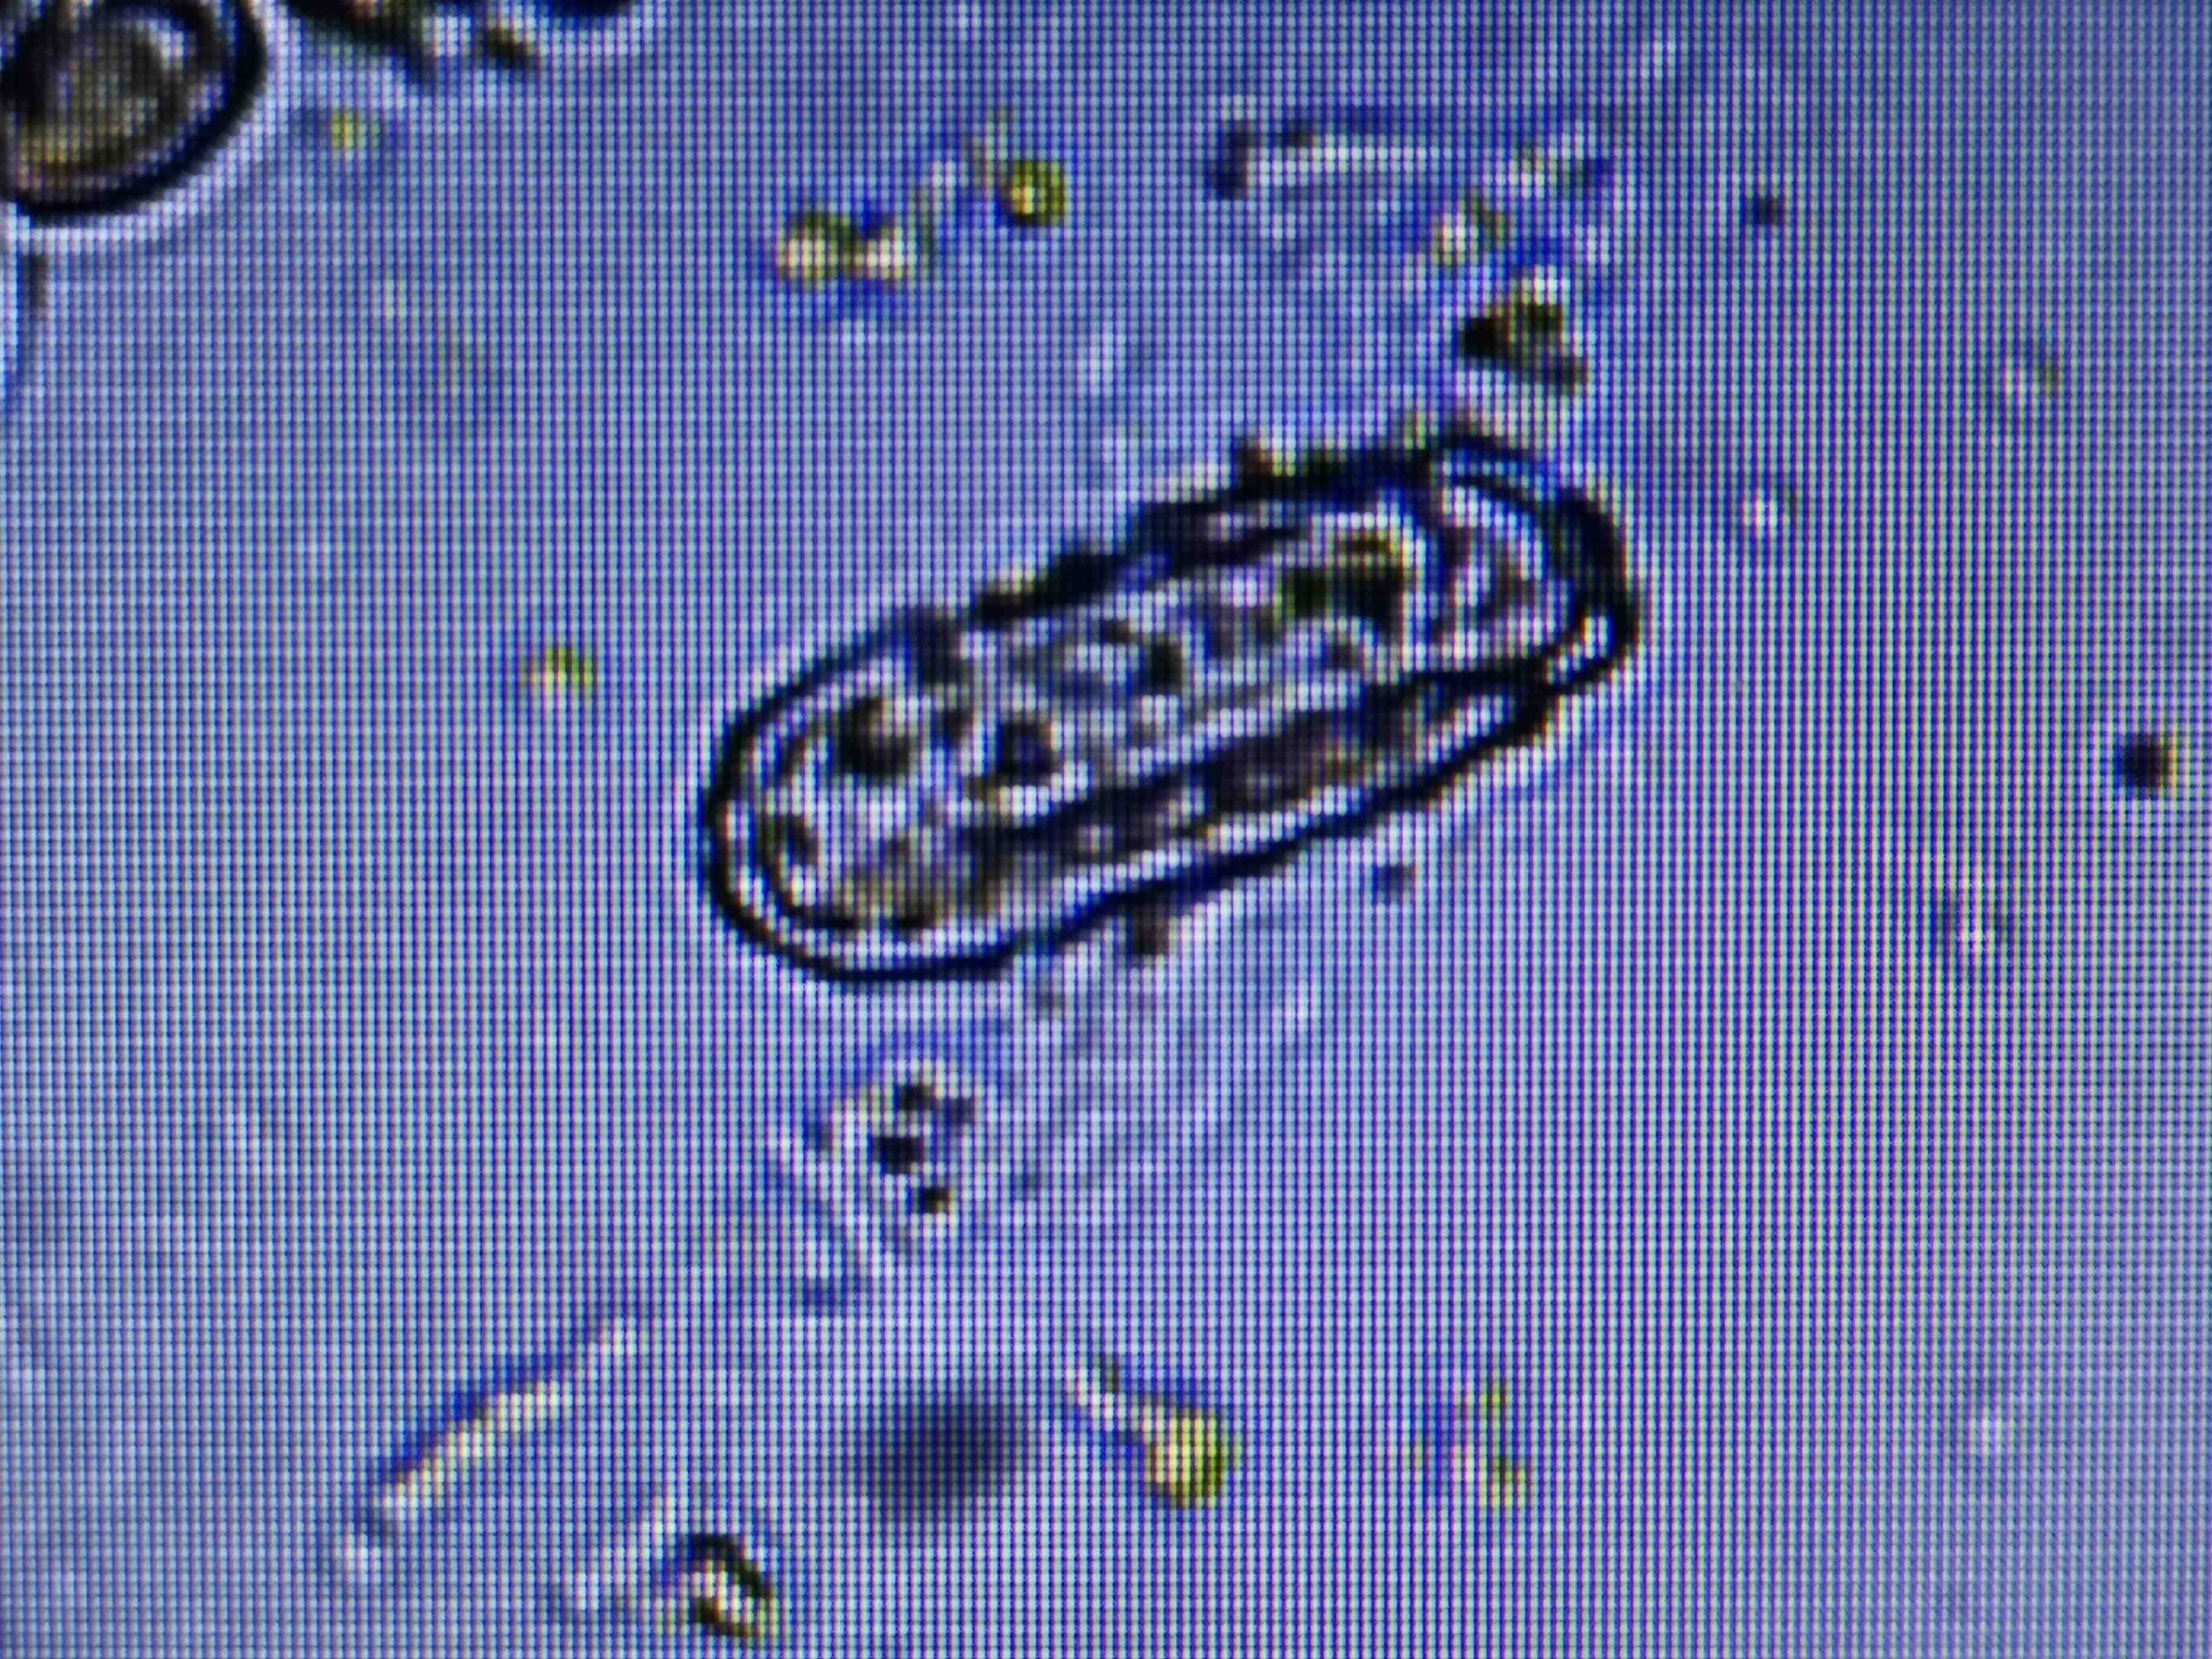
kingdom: Fungi
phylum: Ascomycota
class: Leotiomycetes
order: Helotiales
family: Erysiphaceae
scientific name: Erysiphaceae
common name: meldugfamilien
